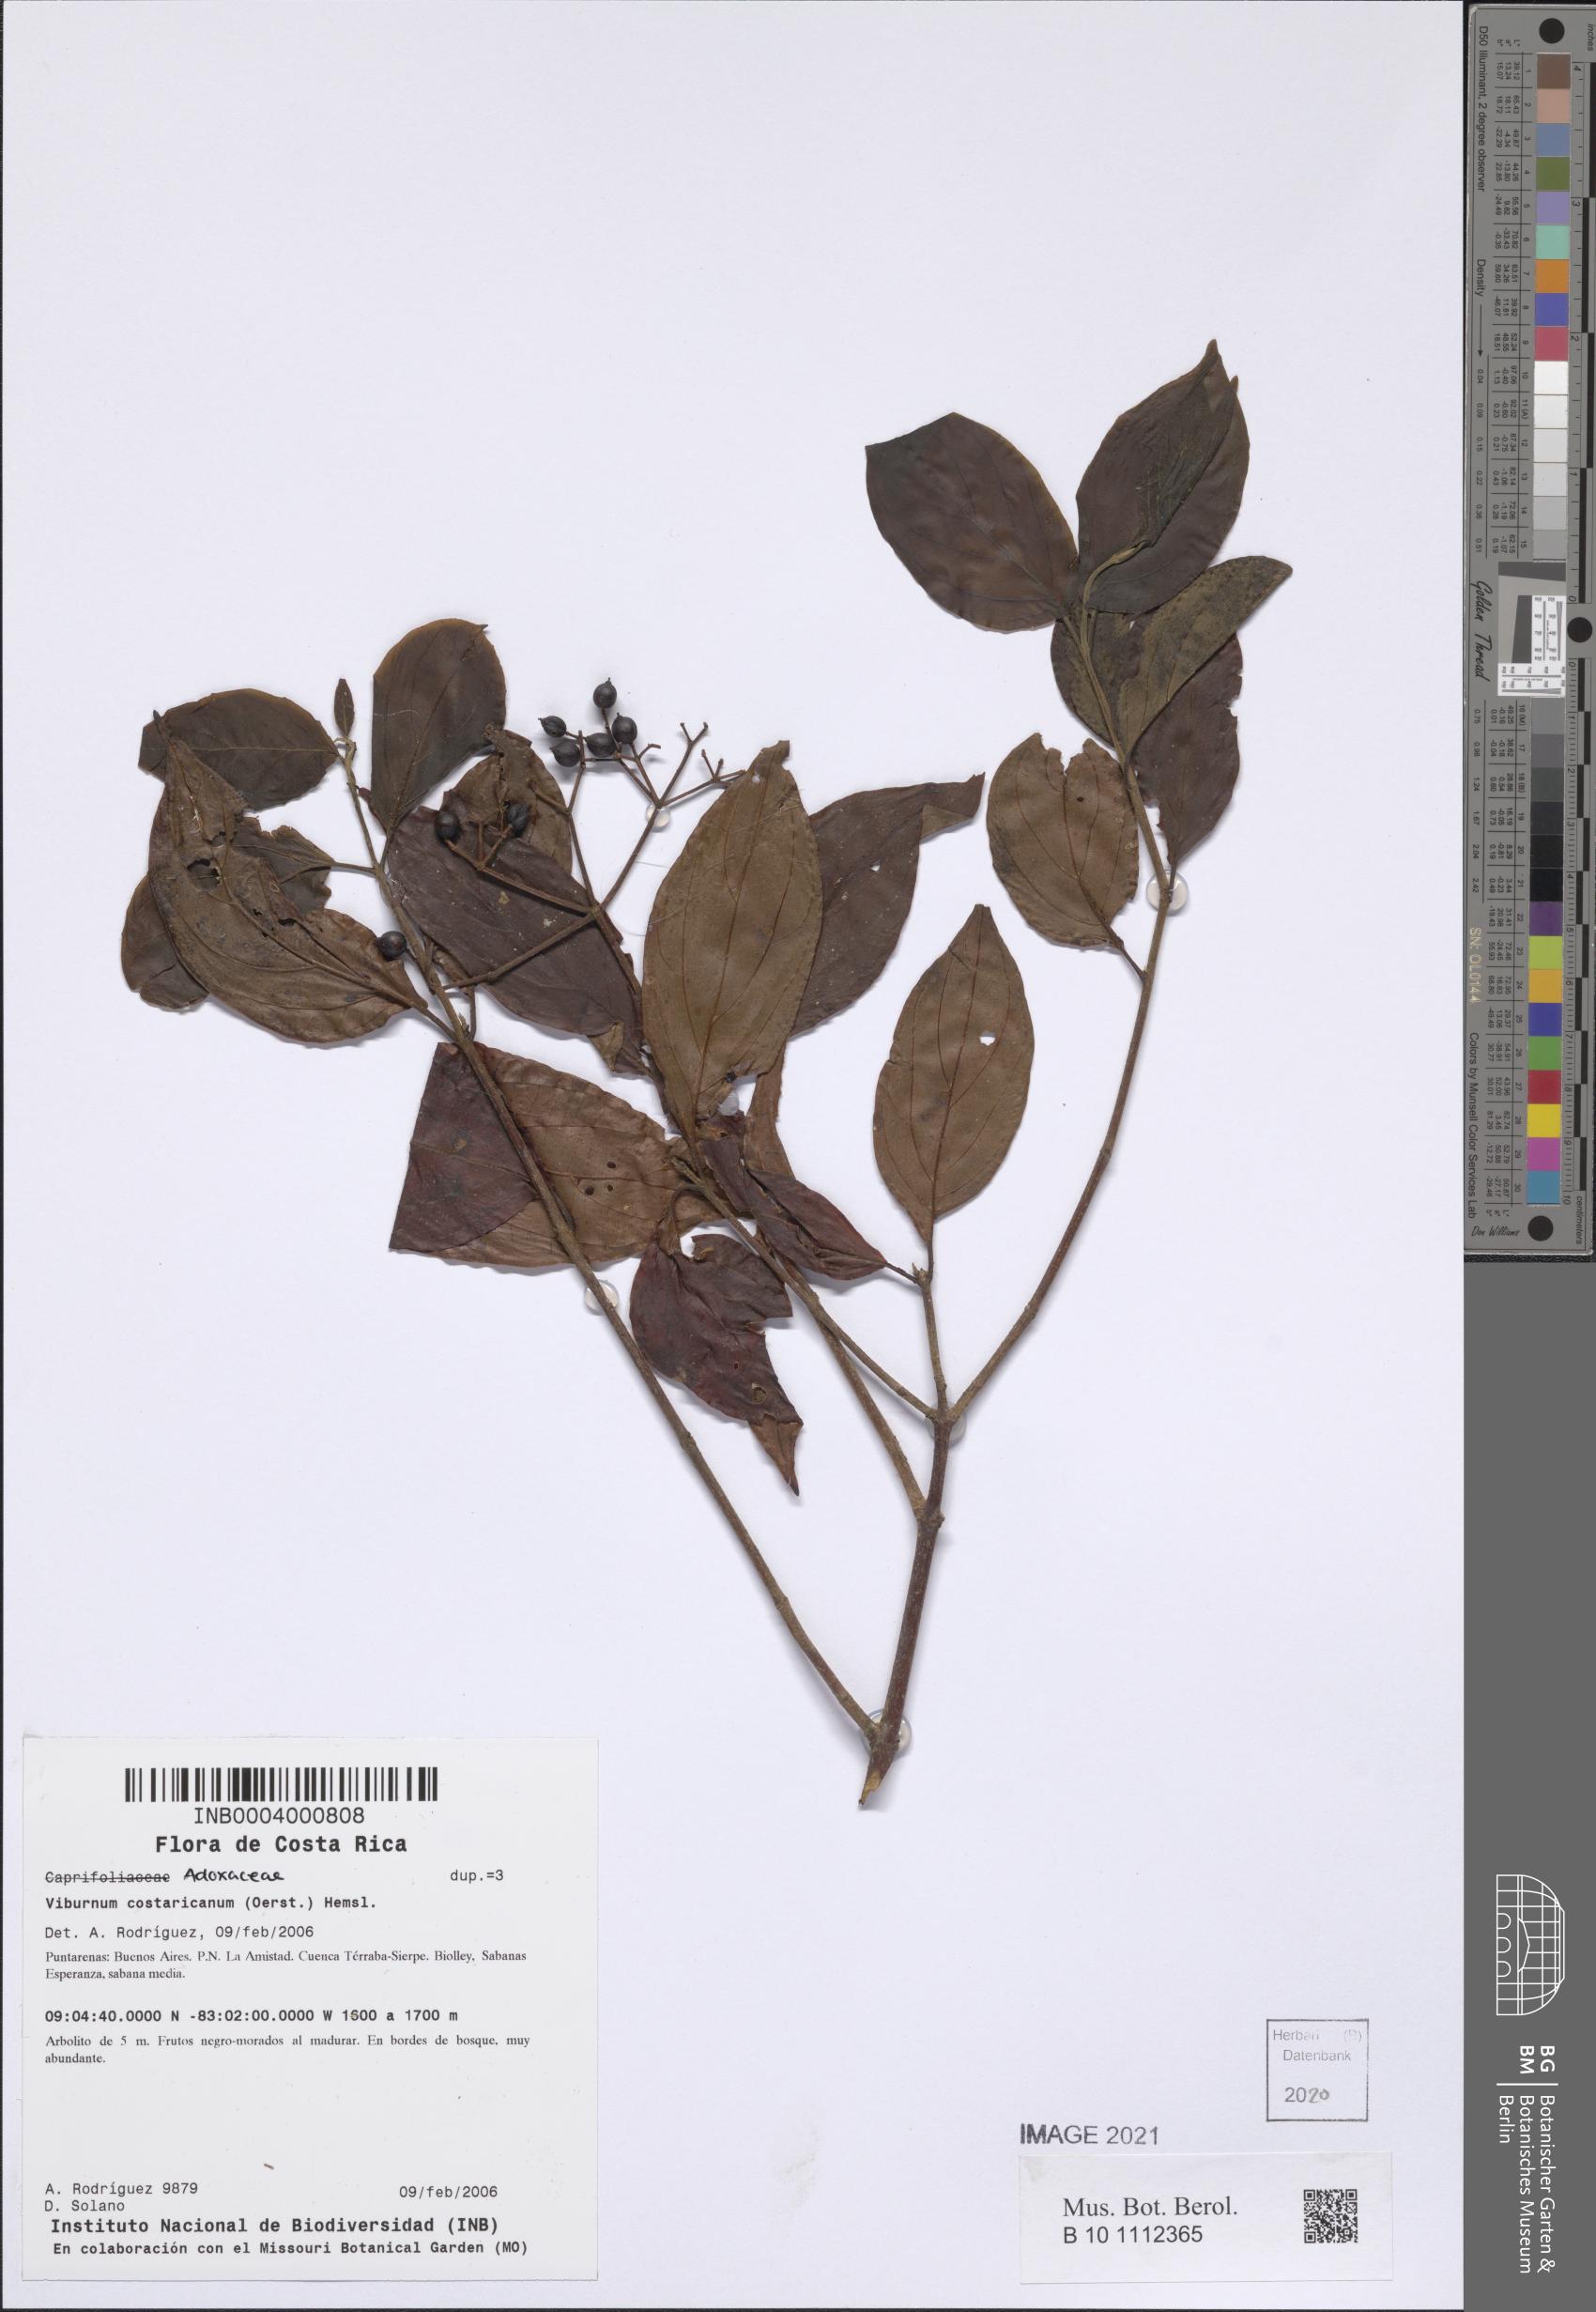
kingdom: Plantae
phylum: Tracheophyta
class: Magnoliopsida
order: Dipsacales
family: Viburnaceae
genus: Viburnum
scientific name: Viburnum costaricanum
